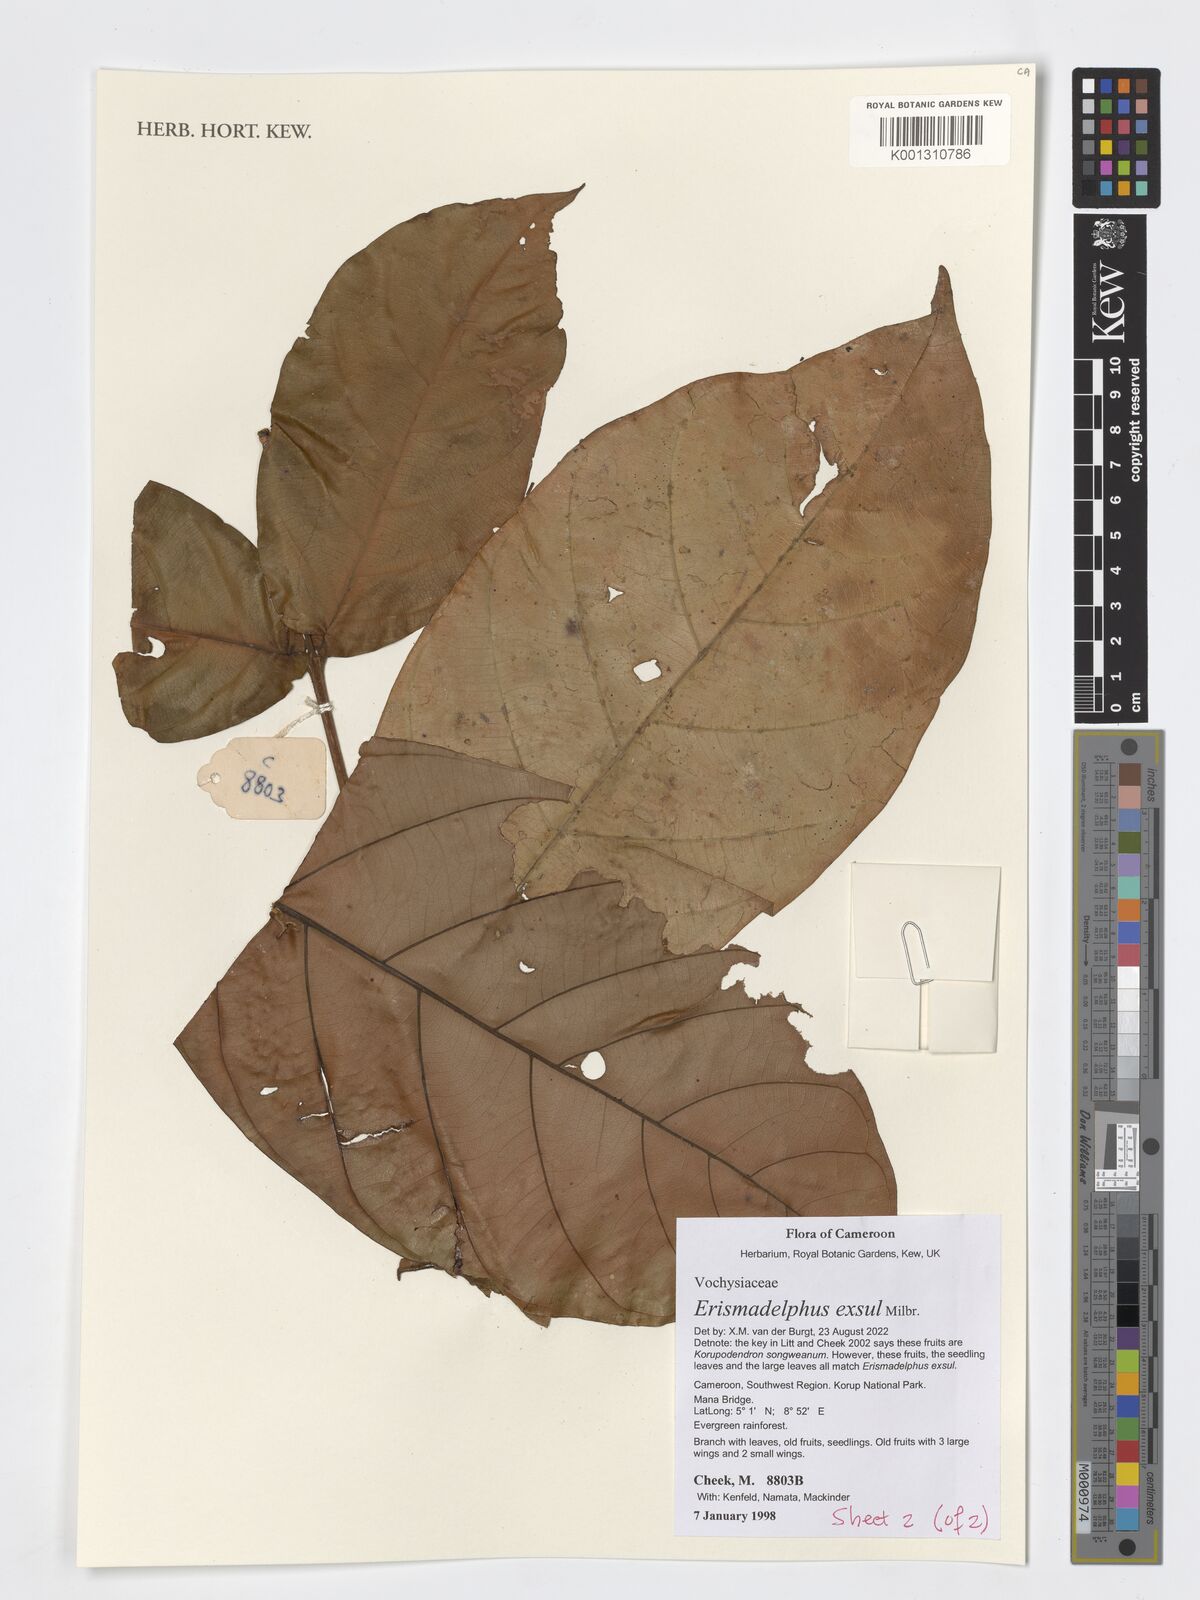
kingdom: Plantae
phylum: Tracheophyta
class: Magnoliopsida
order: Myrtales
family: Vochysiaceae
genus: Erismadelphus
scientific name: Erismadelphus exsul
